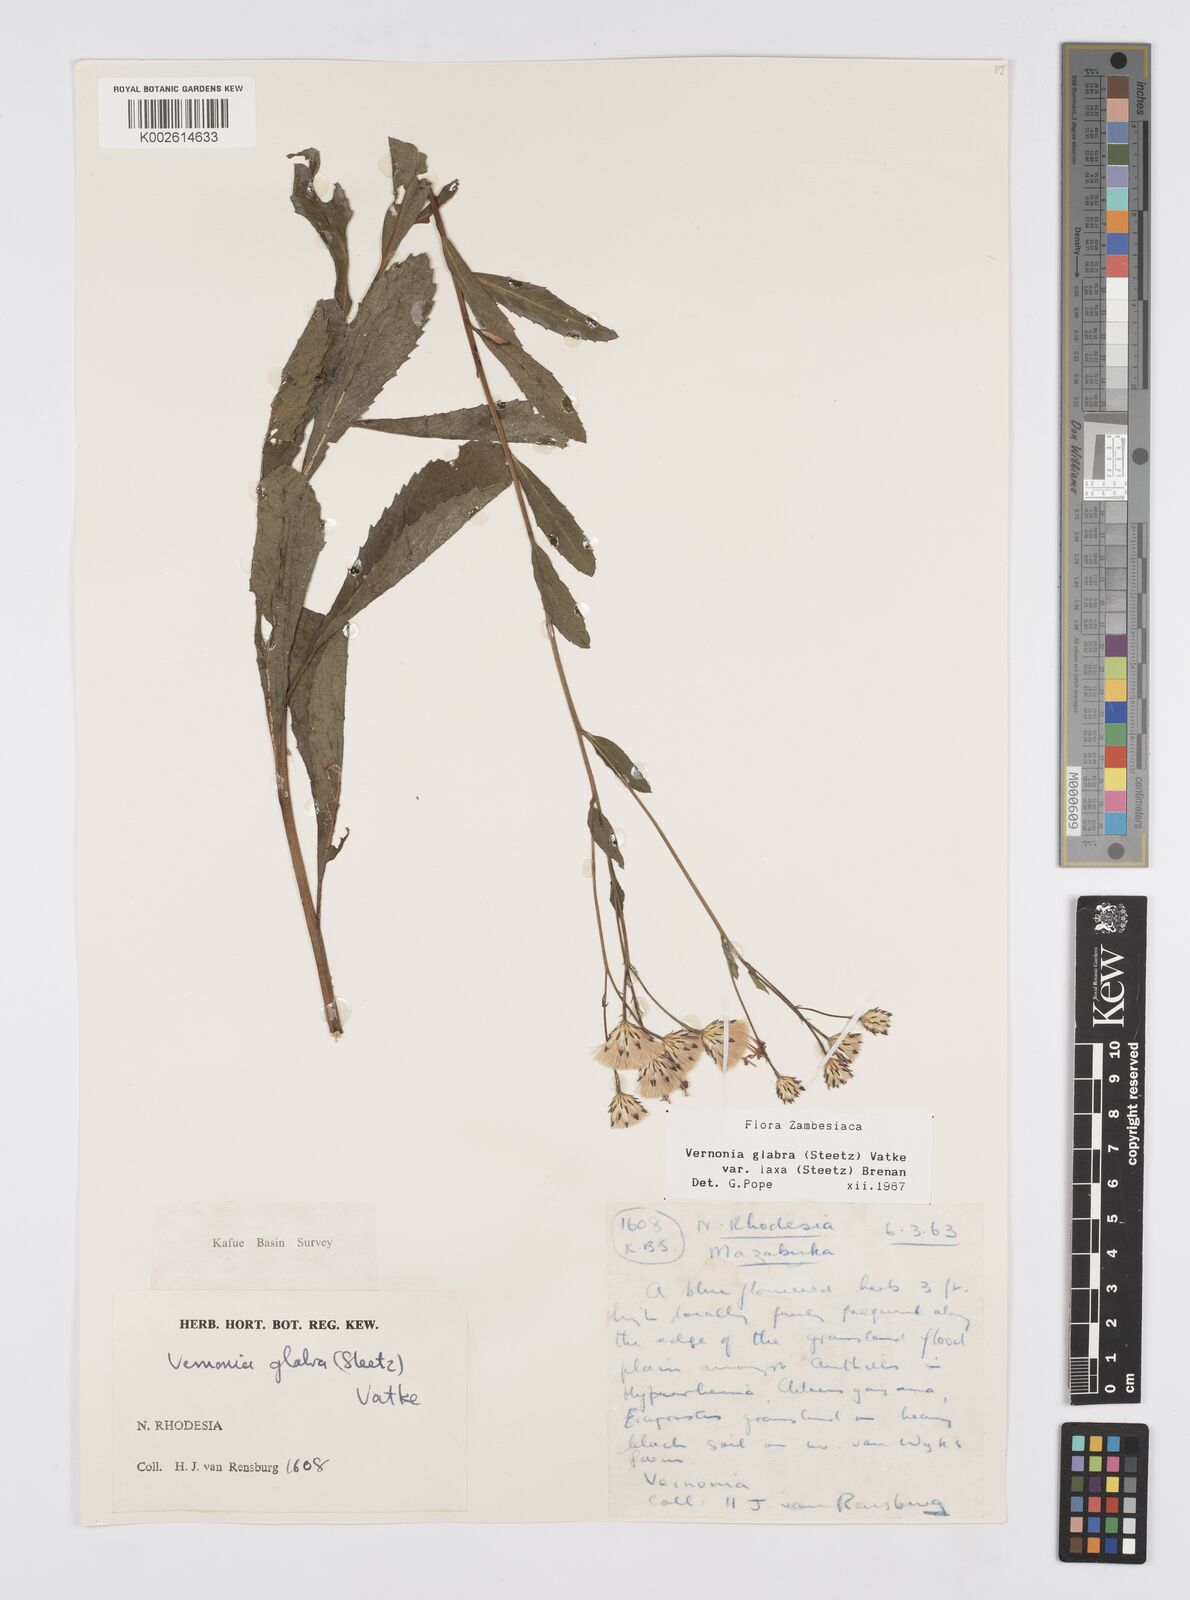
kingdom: Plantae
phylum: Tracheophyta
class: Magnoliopsida
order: Asterales
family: Asteraceae
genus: Linzia
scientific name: Linzia glabra
